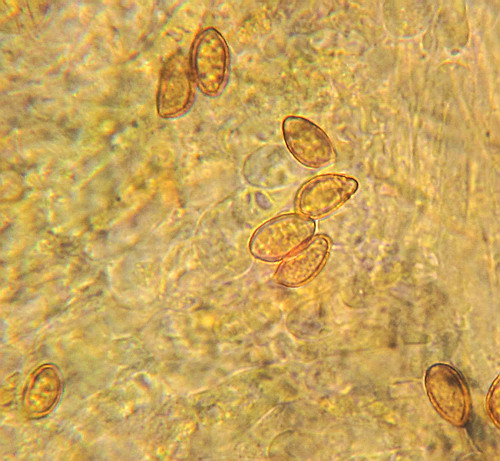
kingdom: Fungi
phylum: Basidiomycota
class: Agaricomycetes
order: Agaricales
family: Cortinariaceae
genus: Phlegmacium
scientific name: Phlegmacium cliduchus
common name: majs-slørhat
